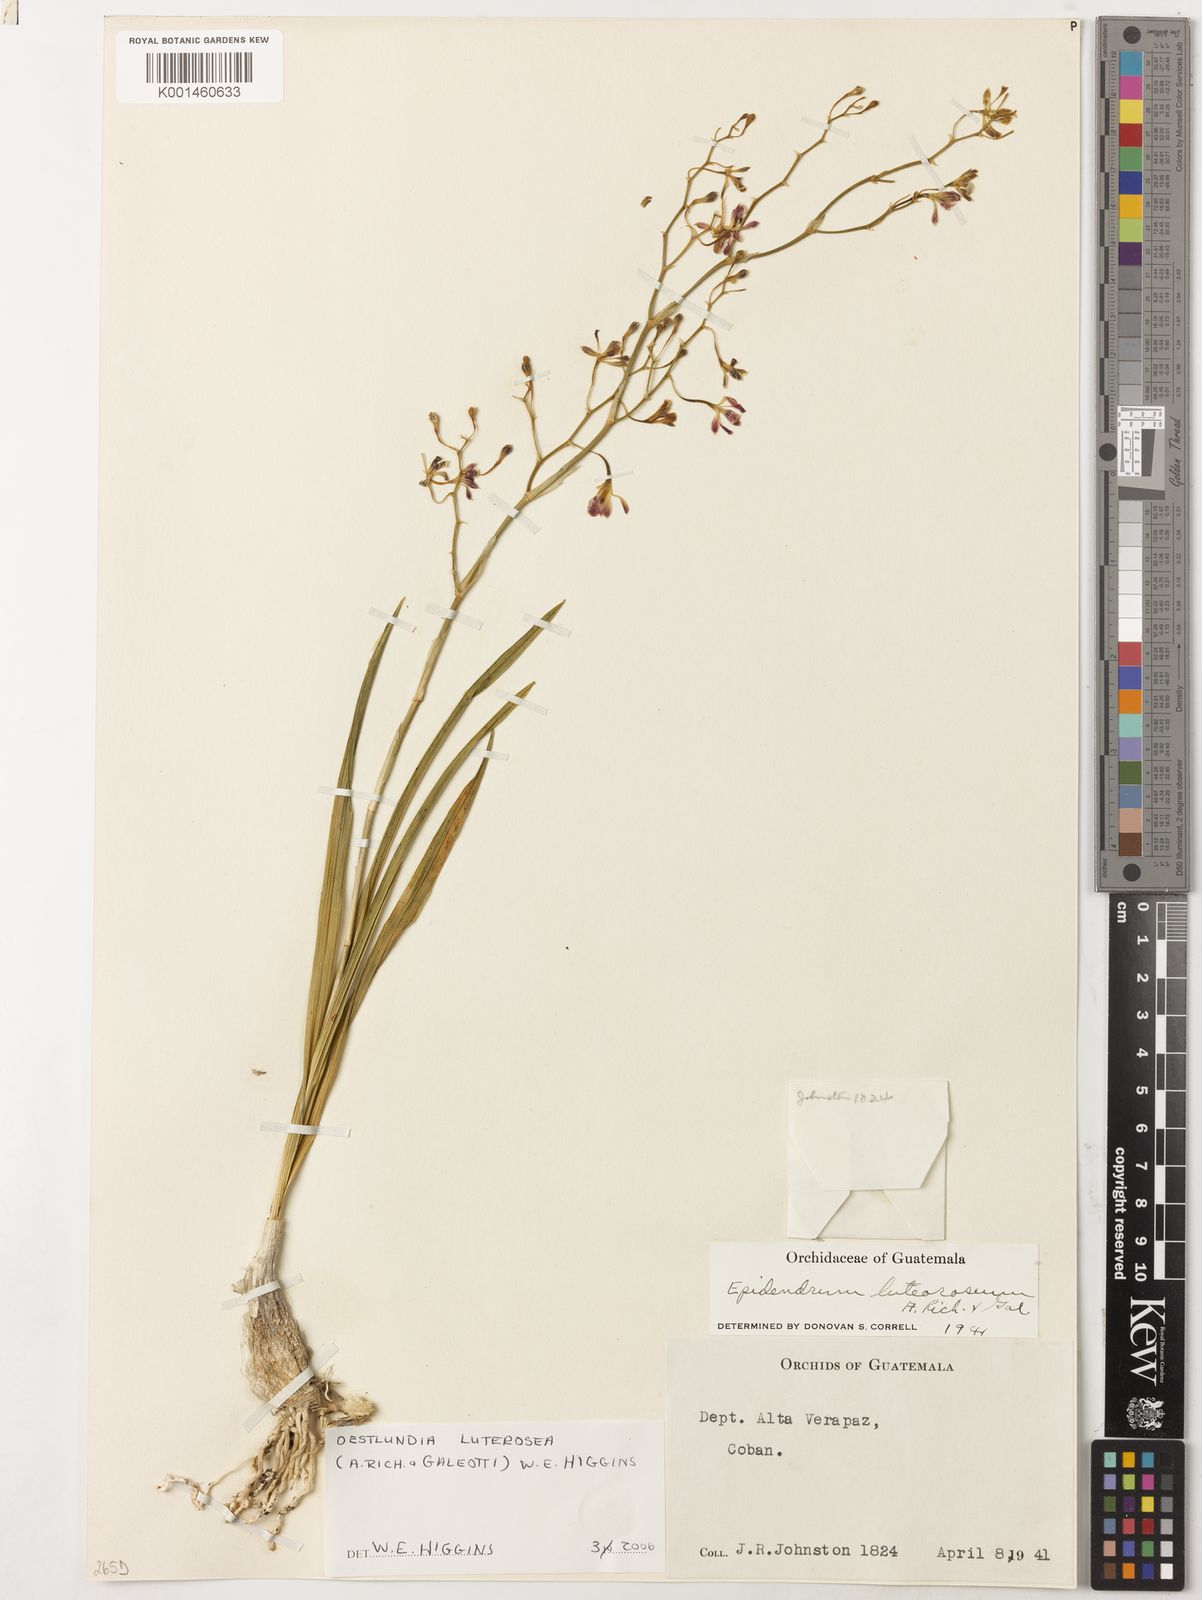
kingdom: Plantae
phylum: Tracheophyta
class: Liliopsida
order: Asparagales
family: Orchidaceae
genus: Oestlundia
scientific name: Oestlundia luteorosea
